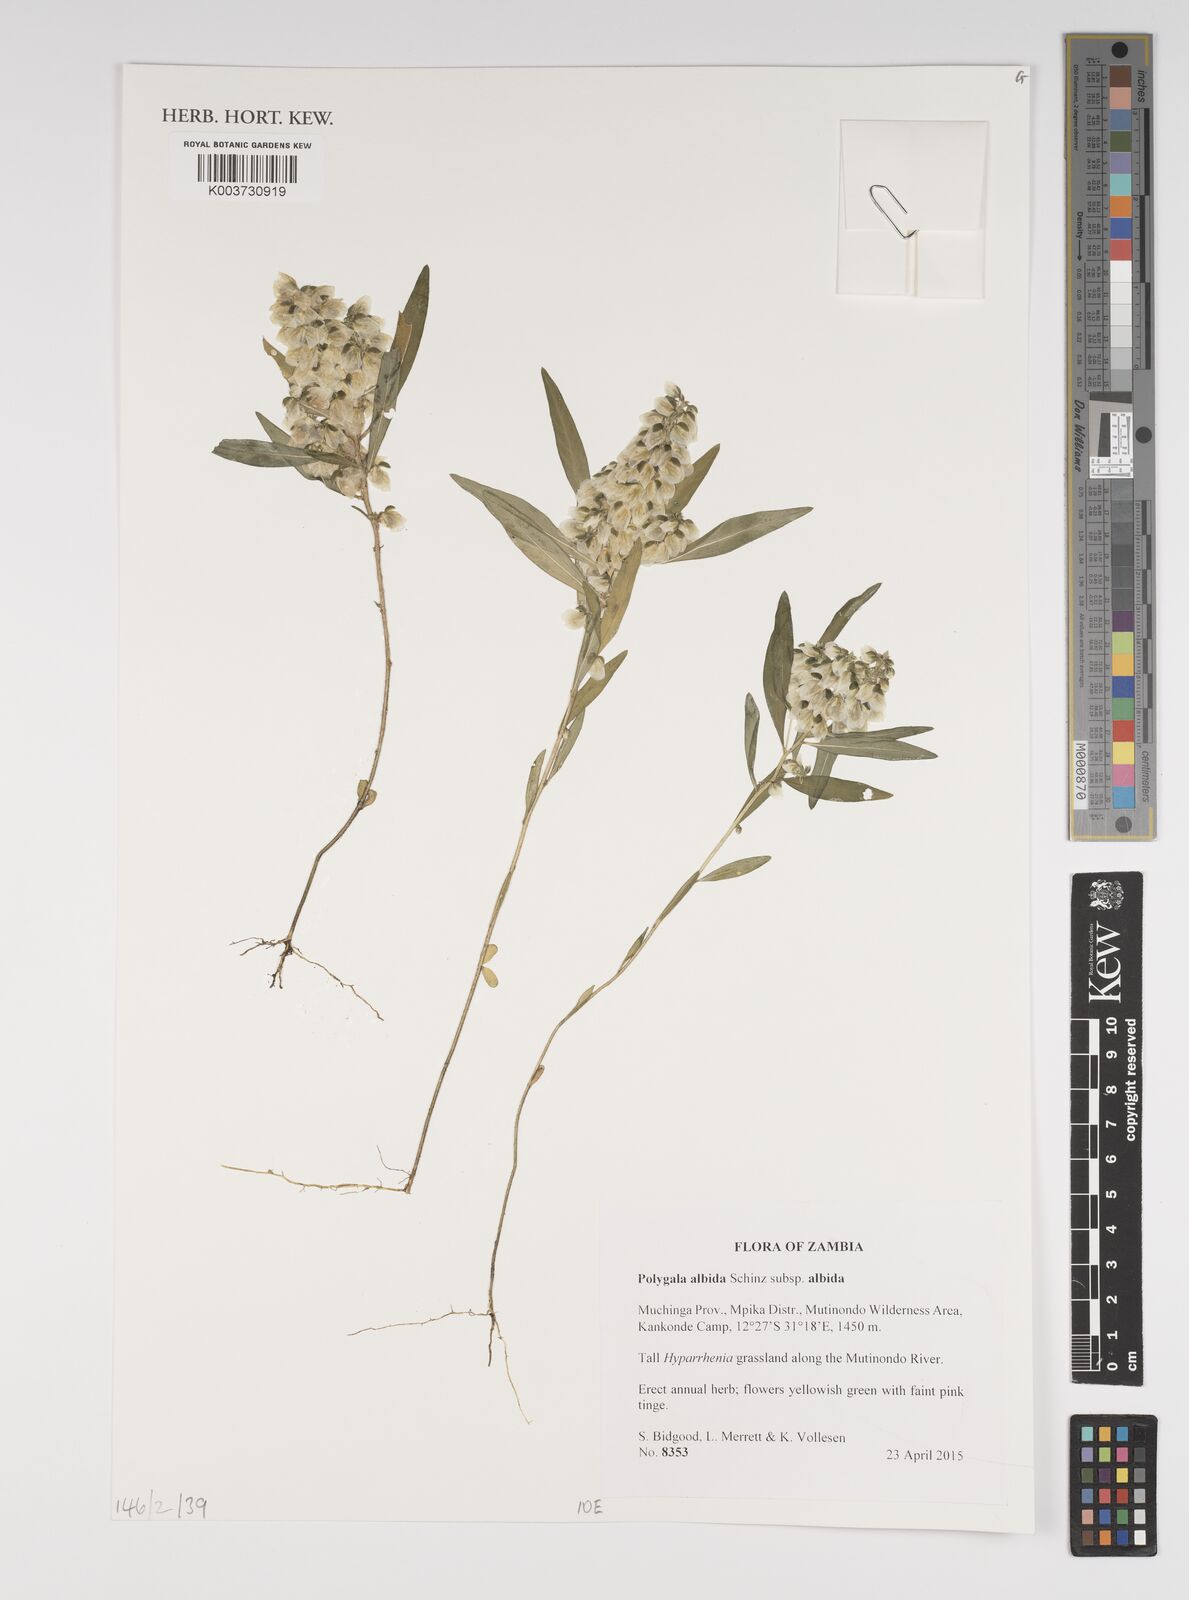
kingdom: Plantae
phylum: Tracheophyta
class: Magnoliopsida
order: Fabales
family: Polygalaceae
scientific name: Polygalaceae
